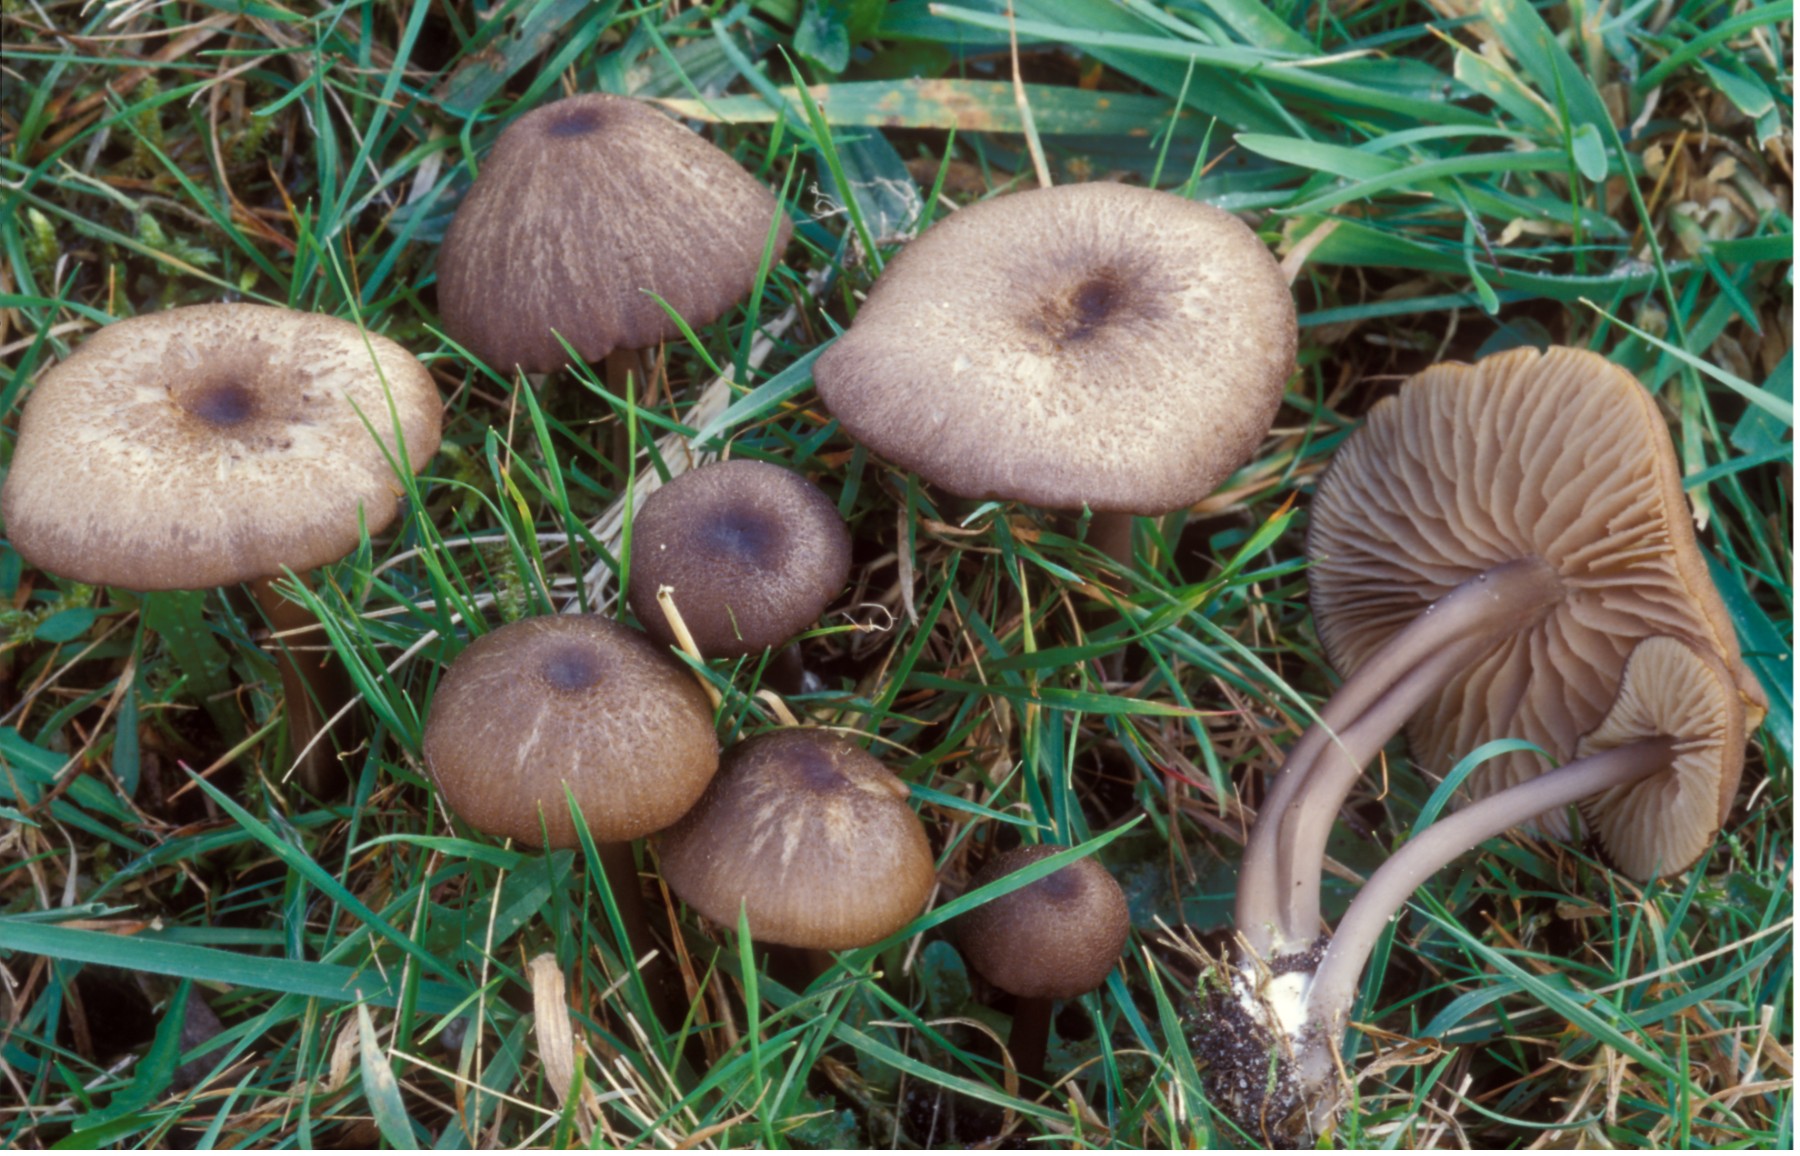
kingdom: Fungi
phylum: Basidiomycota
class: Agaricomycetes
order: Agaricales
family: Entolomataceae
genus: Entoloma
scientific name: Entoloma viiduense
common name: purpurbrun rødblad
